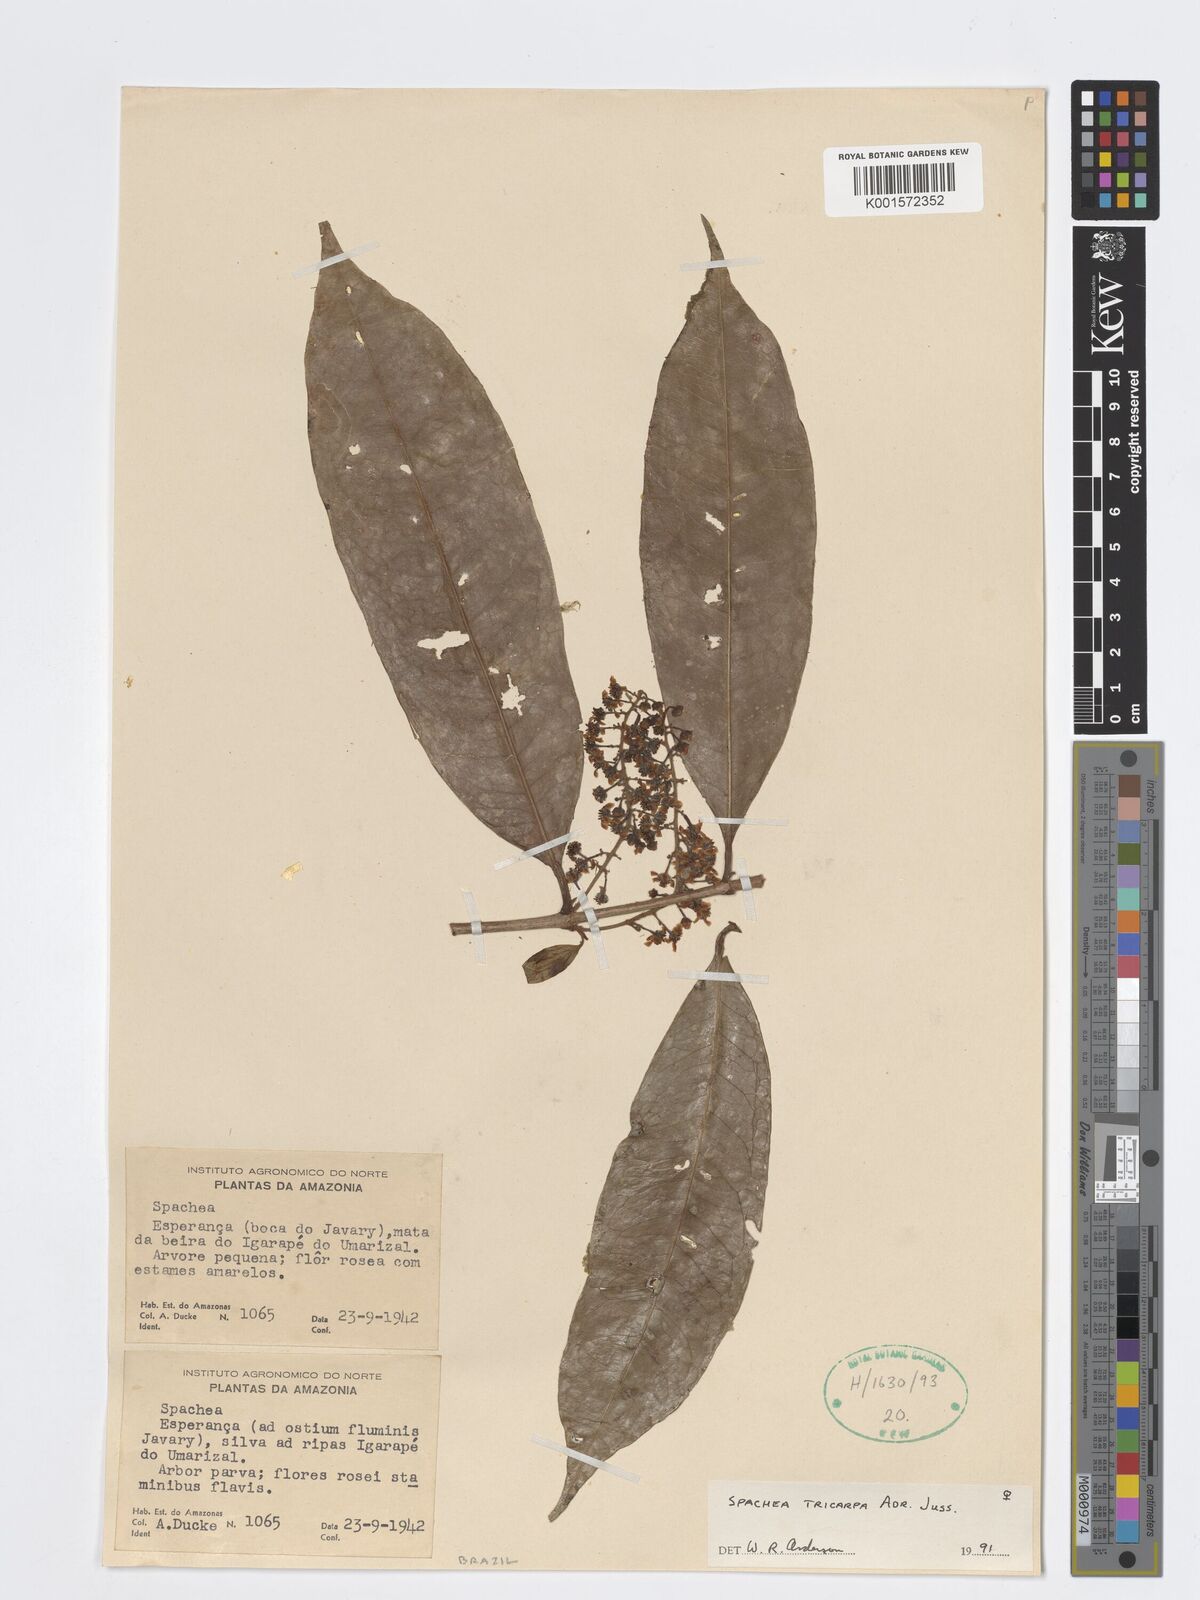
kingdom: Plantae
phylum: Tracheophyta
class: Magnoliopsida
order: Malpighiales
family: Malpighiaceae
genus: Spachea
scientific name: Spachea tricarpa
